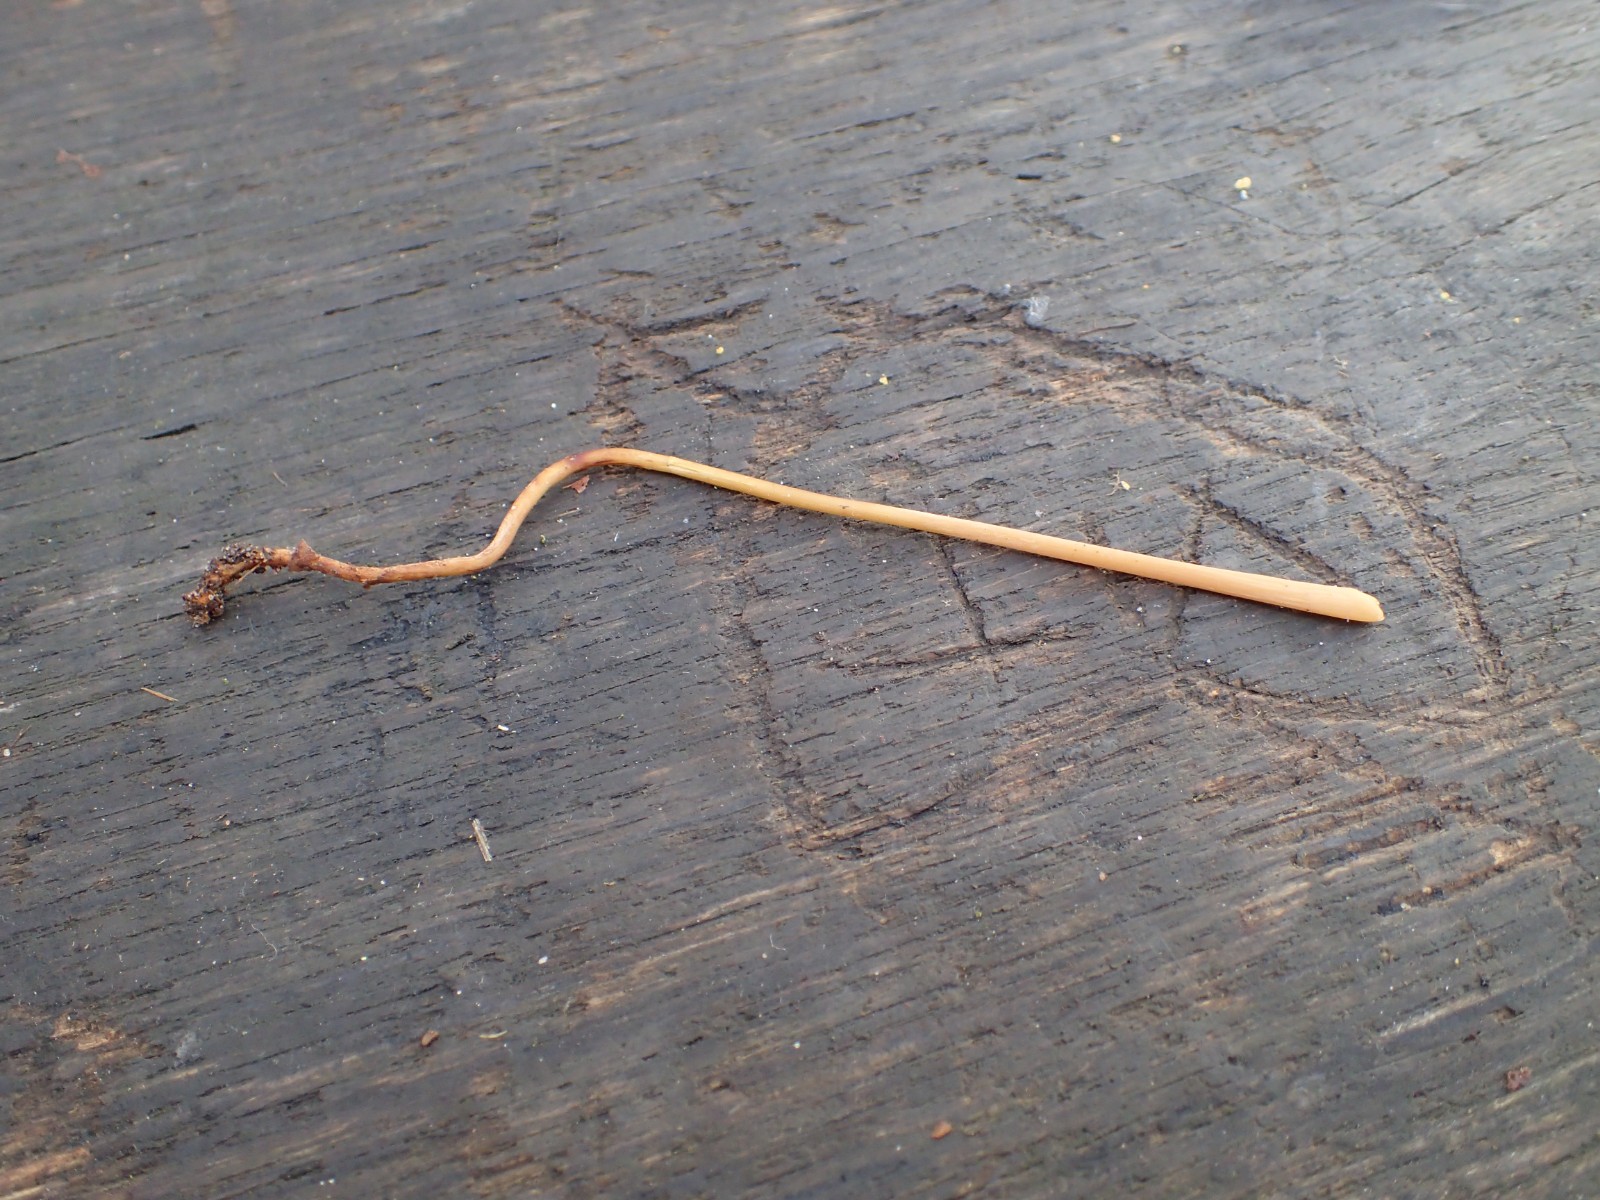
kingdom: Fungi
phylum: Basidiomycota
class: Agaricomycetes
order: Agaricales
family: Typhulaceae
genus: Typhula
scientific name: Typhula fistulosa
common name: pibet rørkølle
